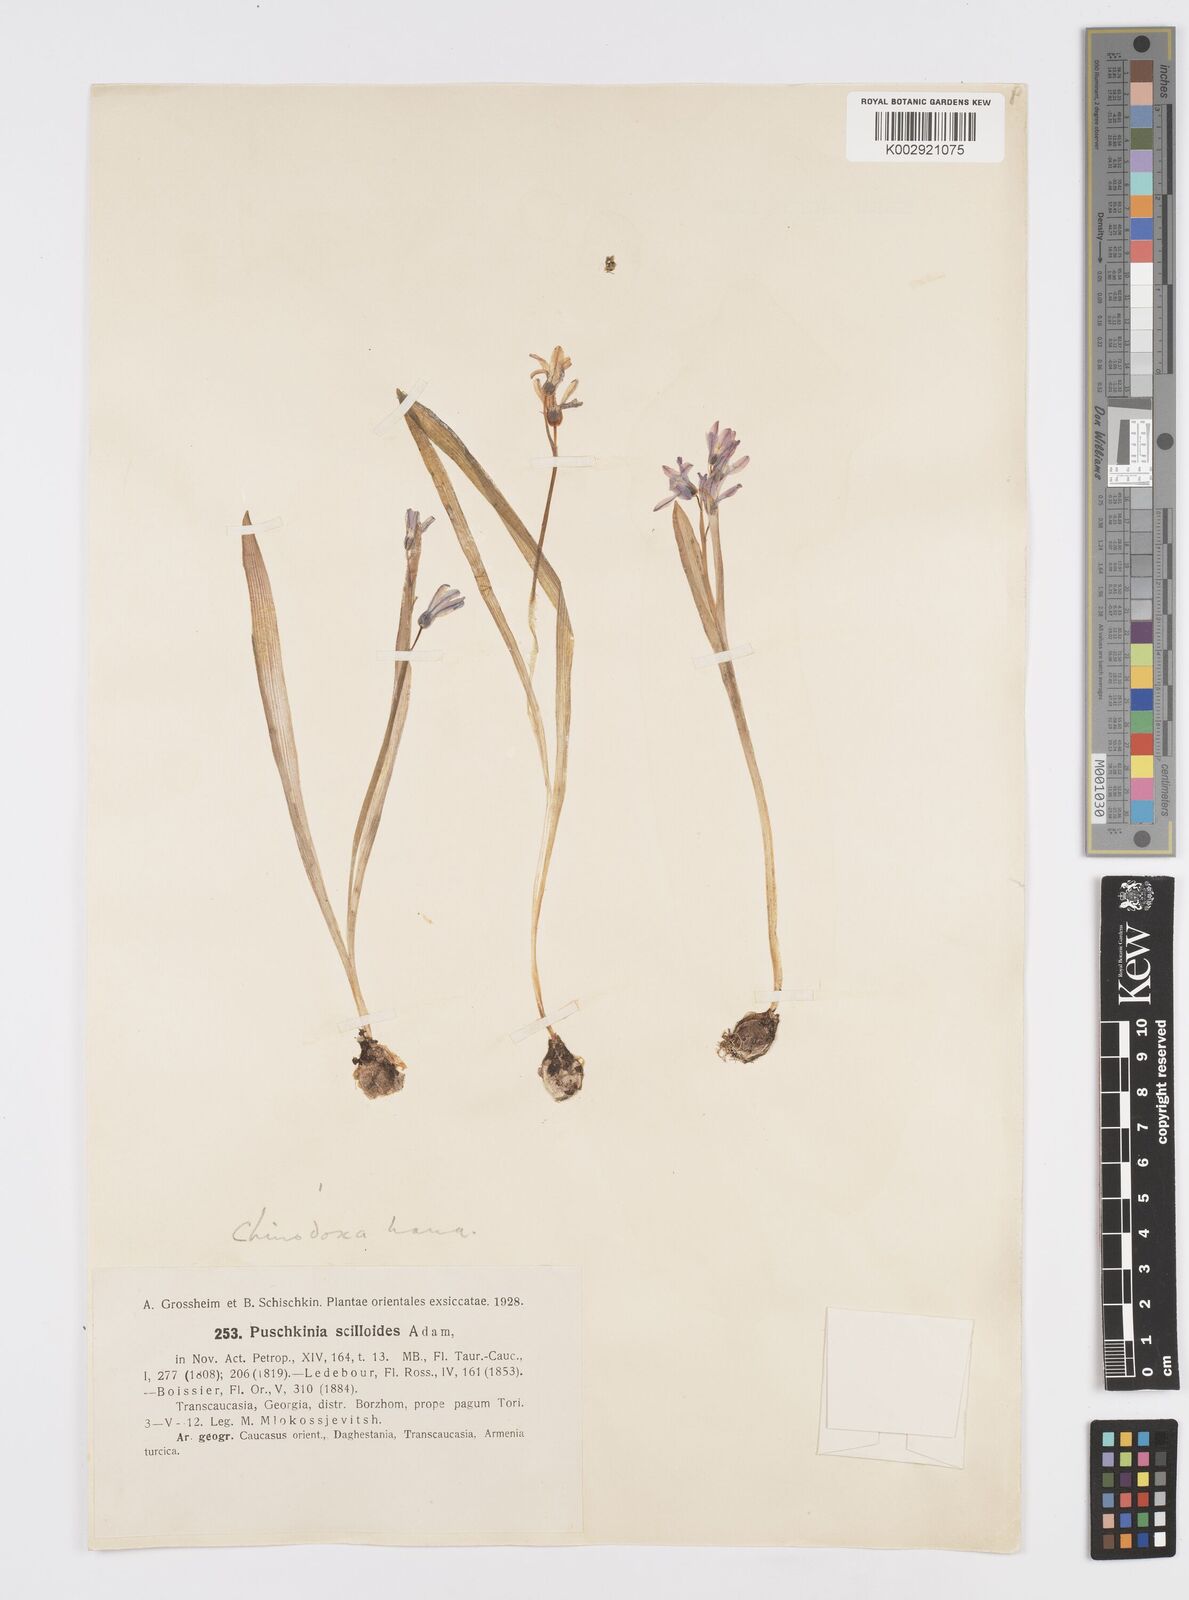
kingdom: Plantae
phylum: Tracheophyta
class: Liliopsida
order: Asparagales
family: Asparagaceae
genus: Puschkinia
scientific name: Puschkinia scilloides
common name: Striped squill
